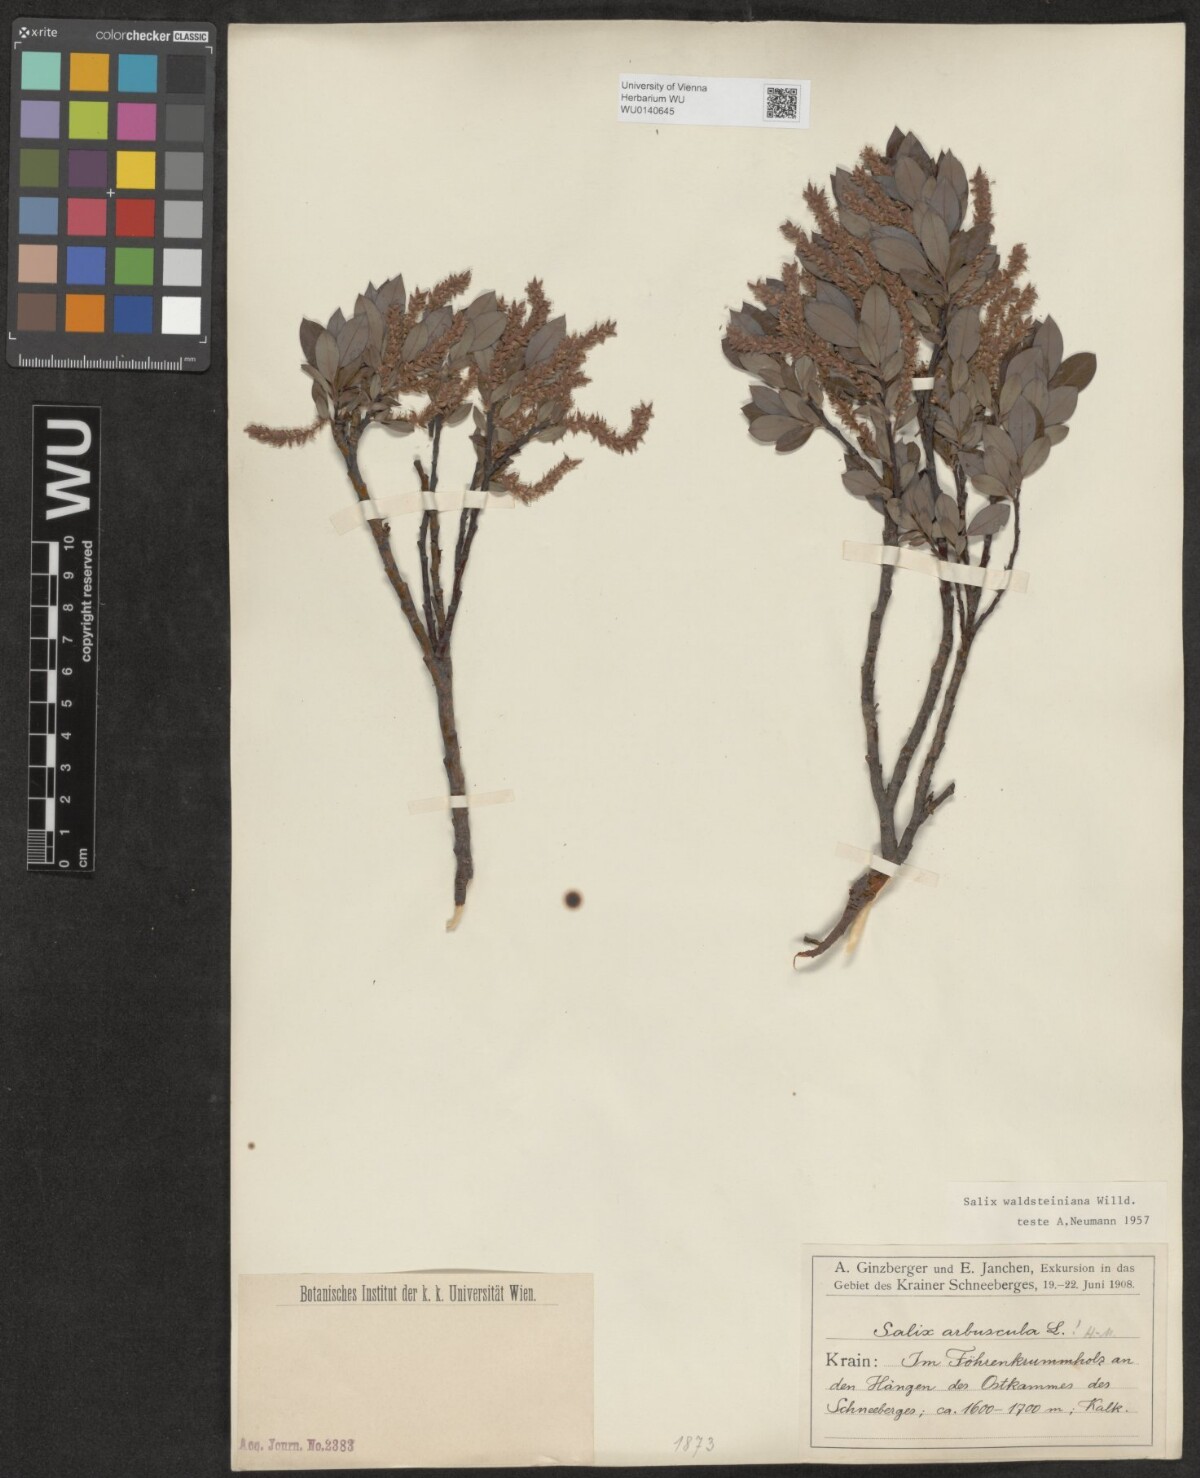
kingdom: Plantae
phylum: Tracheophyta
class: Magnoliopsida
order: Malpighiales
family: Salicaceae
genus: Salix
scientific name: Salix waldsteiniana
